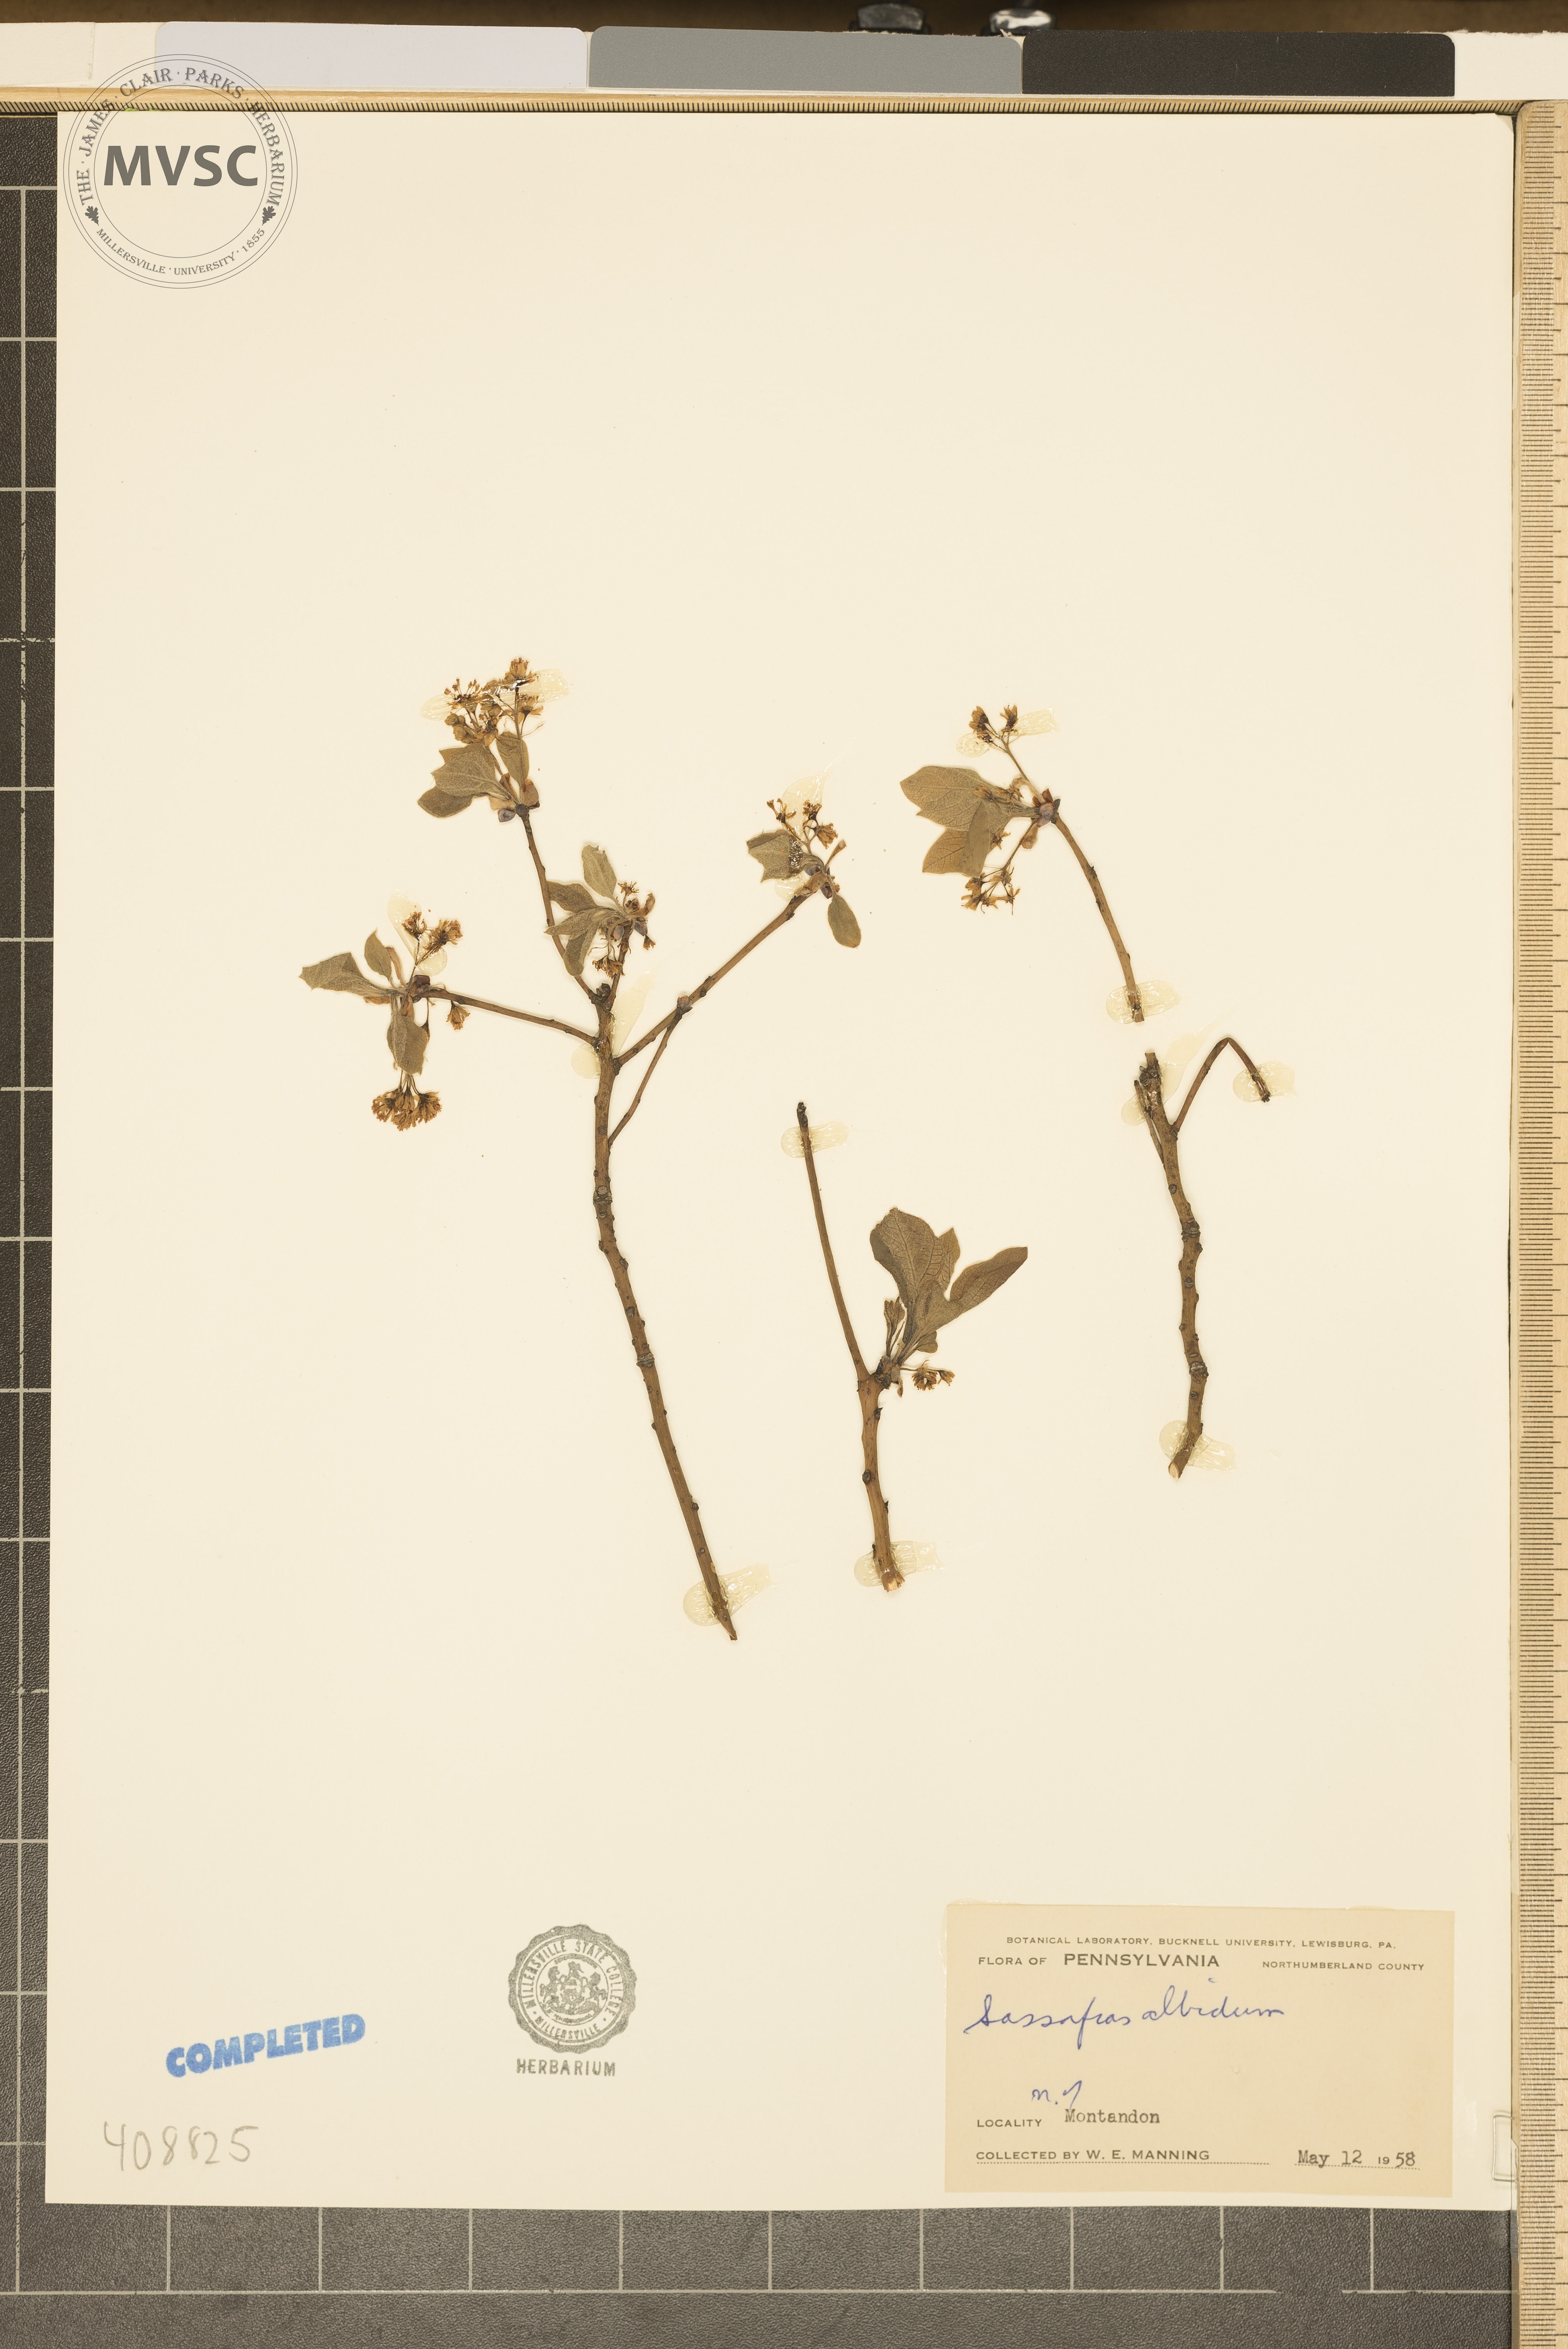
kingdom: Plantae
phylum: Tracheophyta
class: Magnoliopsida
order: Laurales
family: Lauraceae
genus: Sassafras
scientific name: Sassafras albidum
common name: Sassafras
